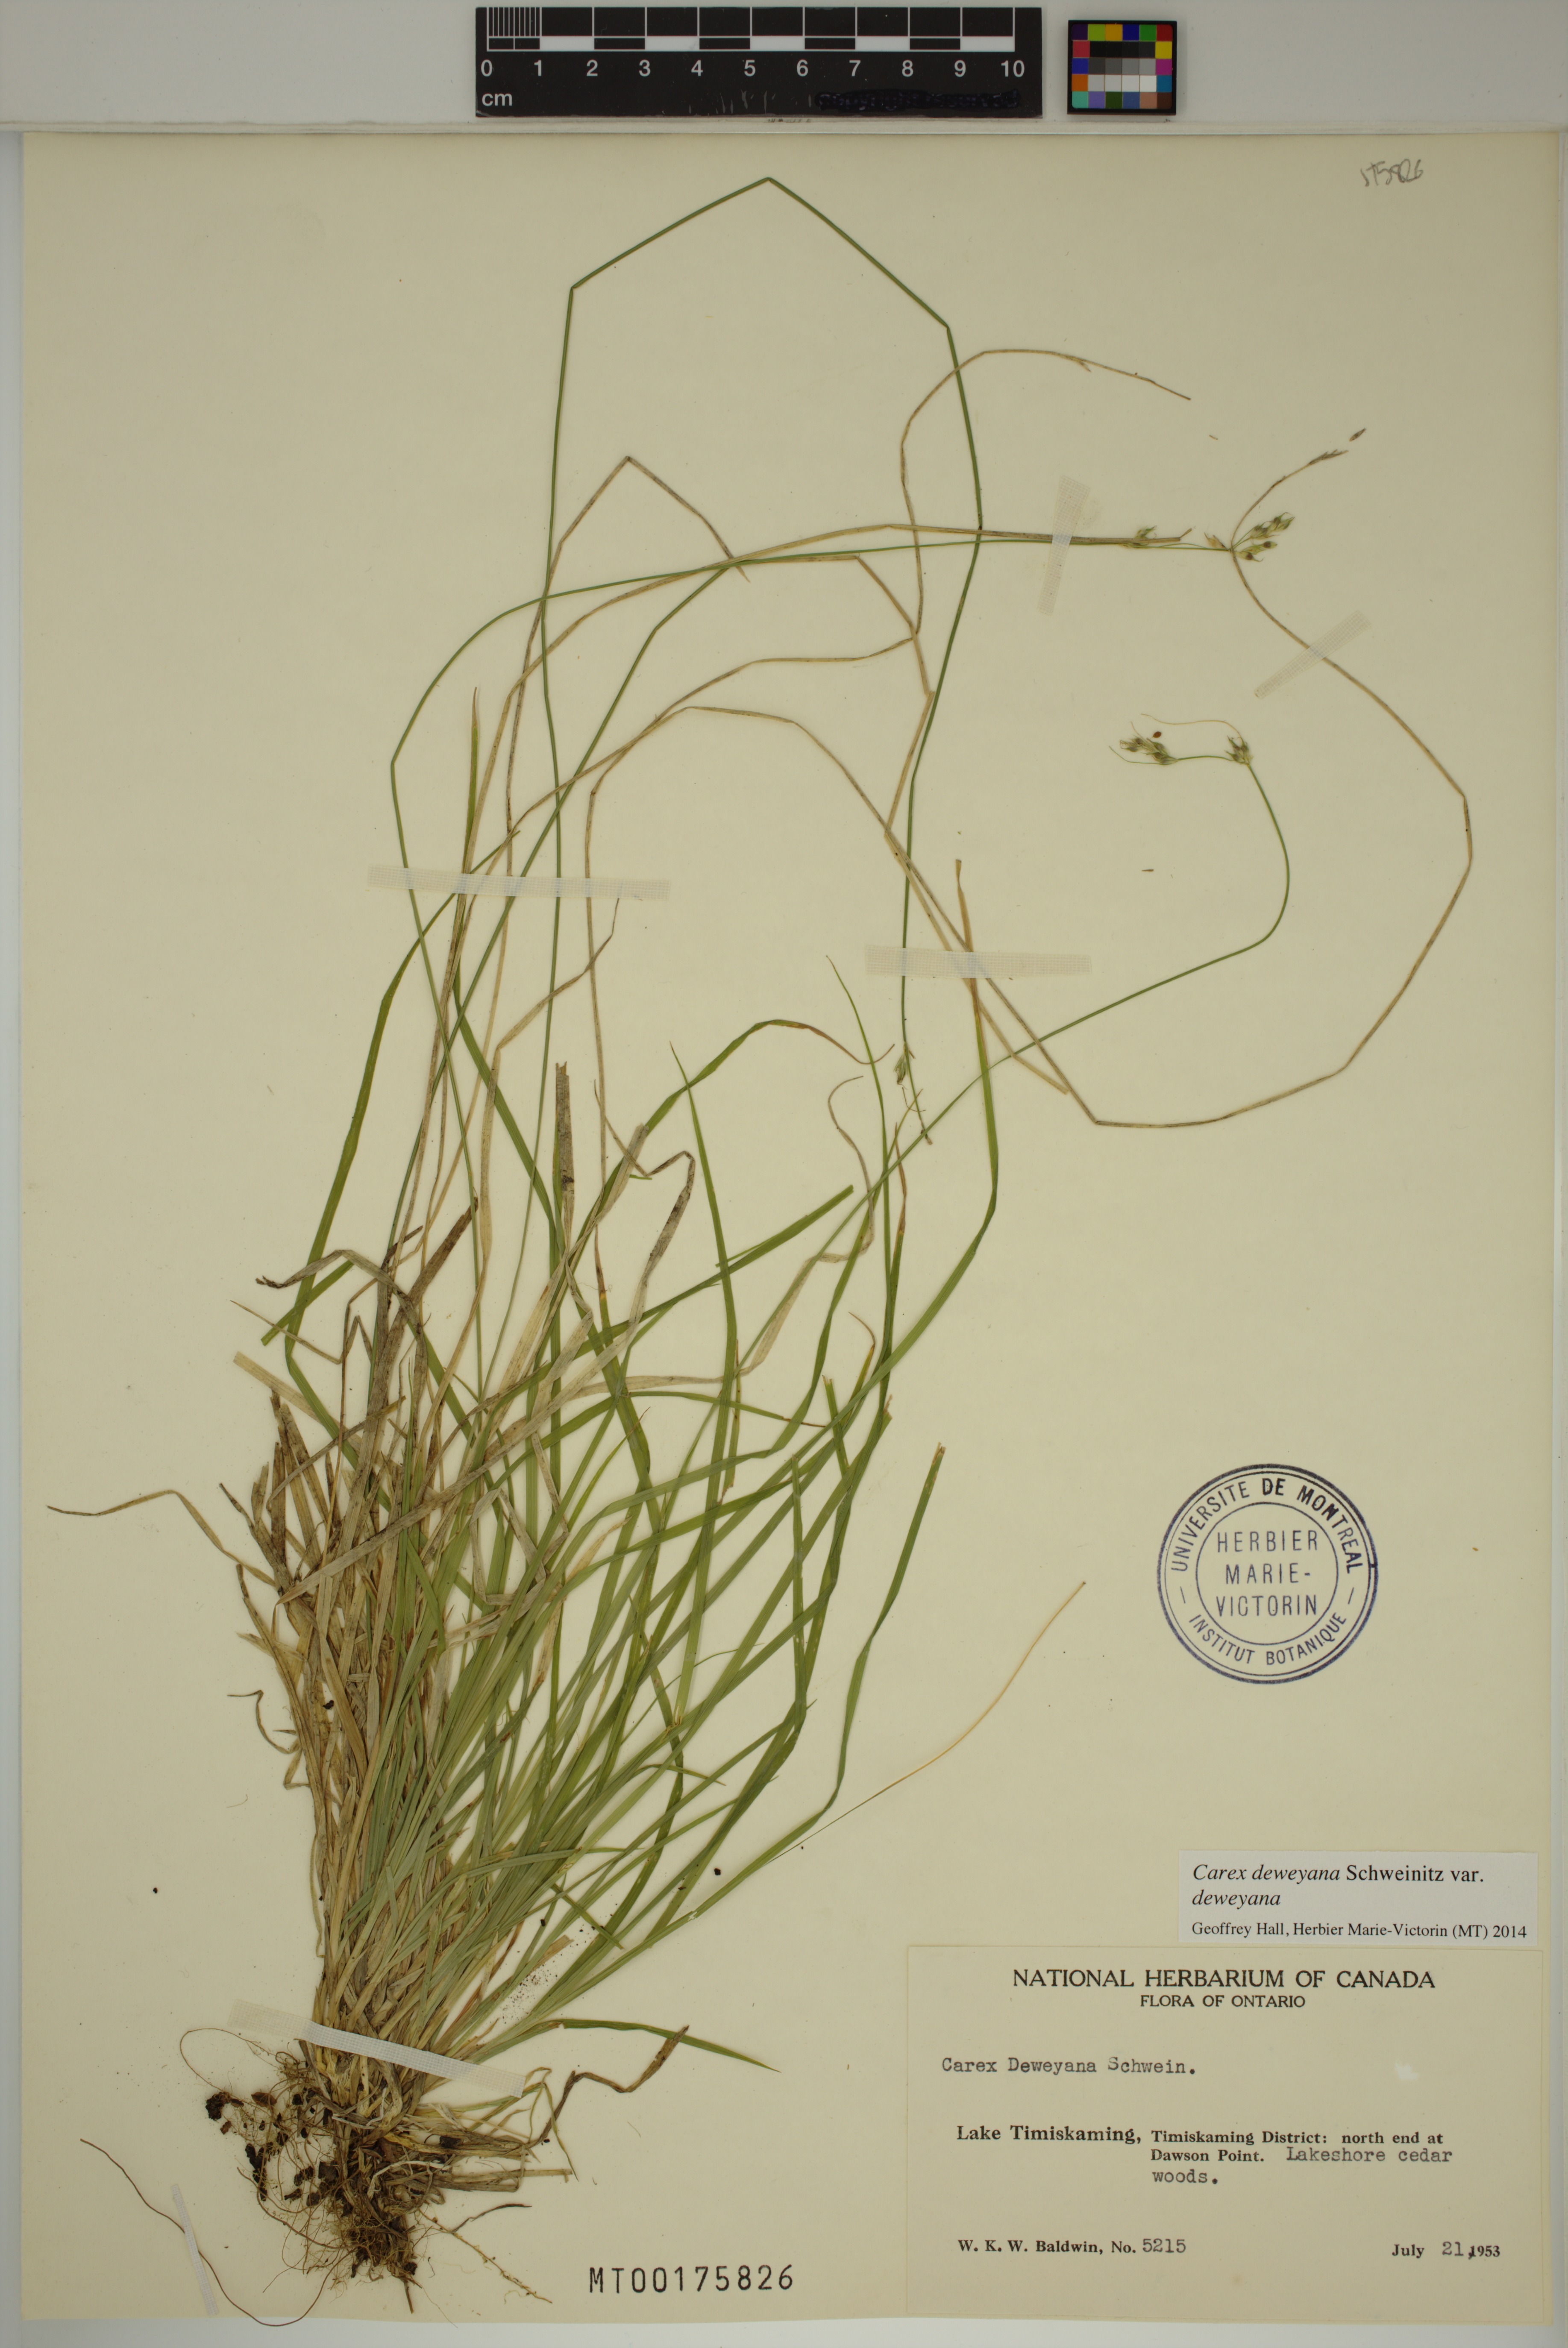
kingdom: Plantae
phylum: Tracheophyta
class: Liliopsida
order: Poales
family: Cyperaceae
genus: Carex
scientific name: Carex deweyana
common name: Dewey's sedge
